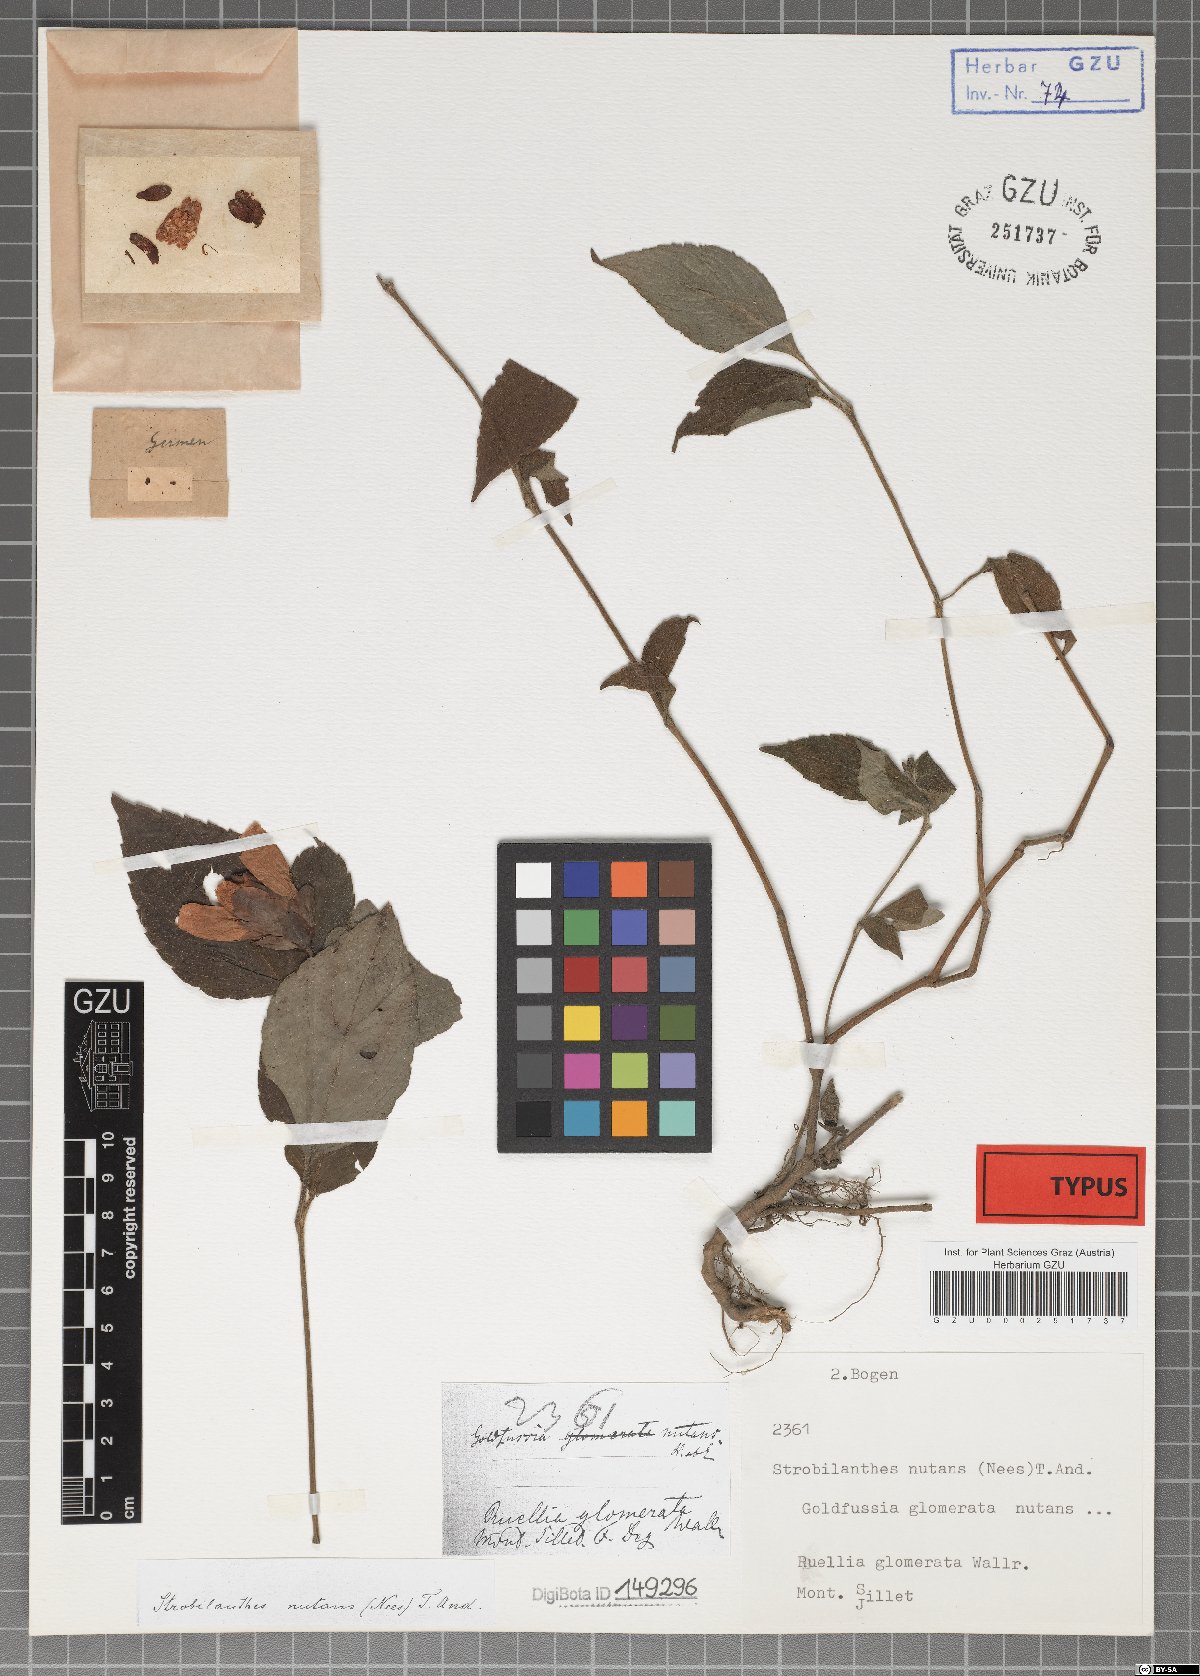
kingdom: Plantae
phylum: Tracheophyta
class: Magnoliopsida
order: Lamiales
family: Acanthaceae
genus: Strobilanthes
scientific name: Strobilanthes nutans
